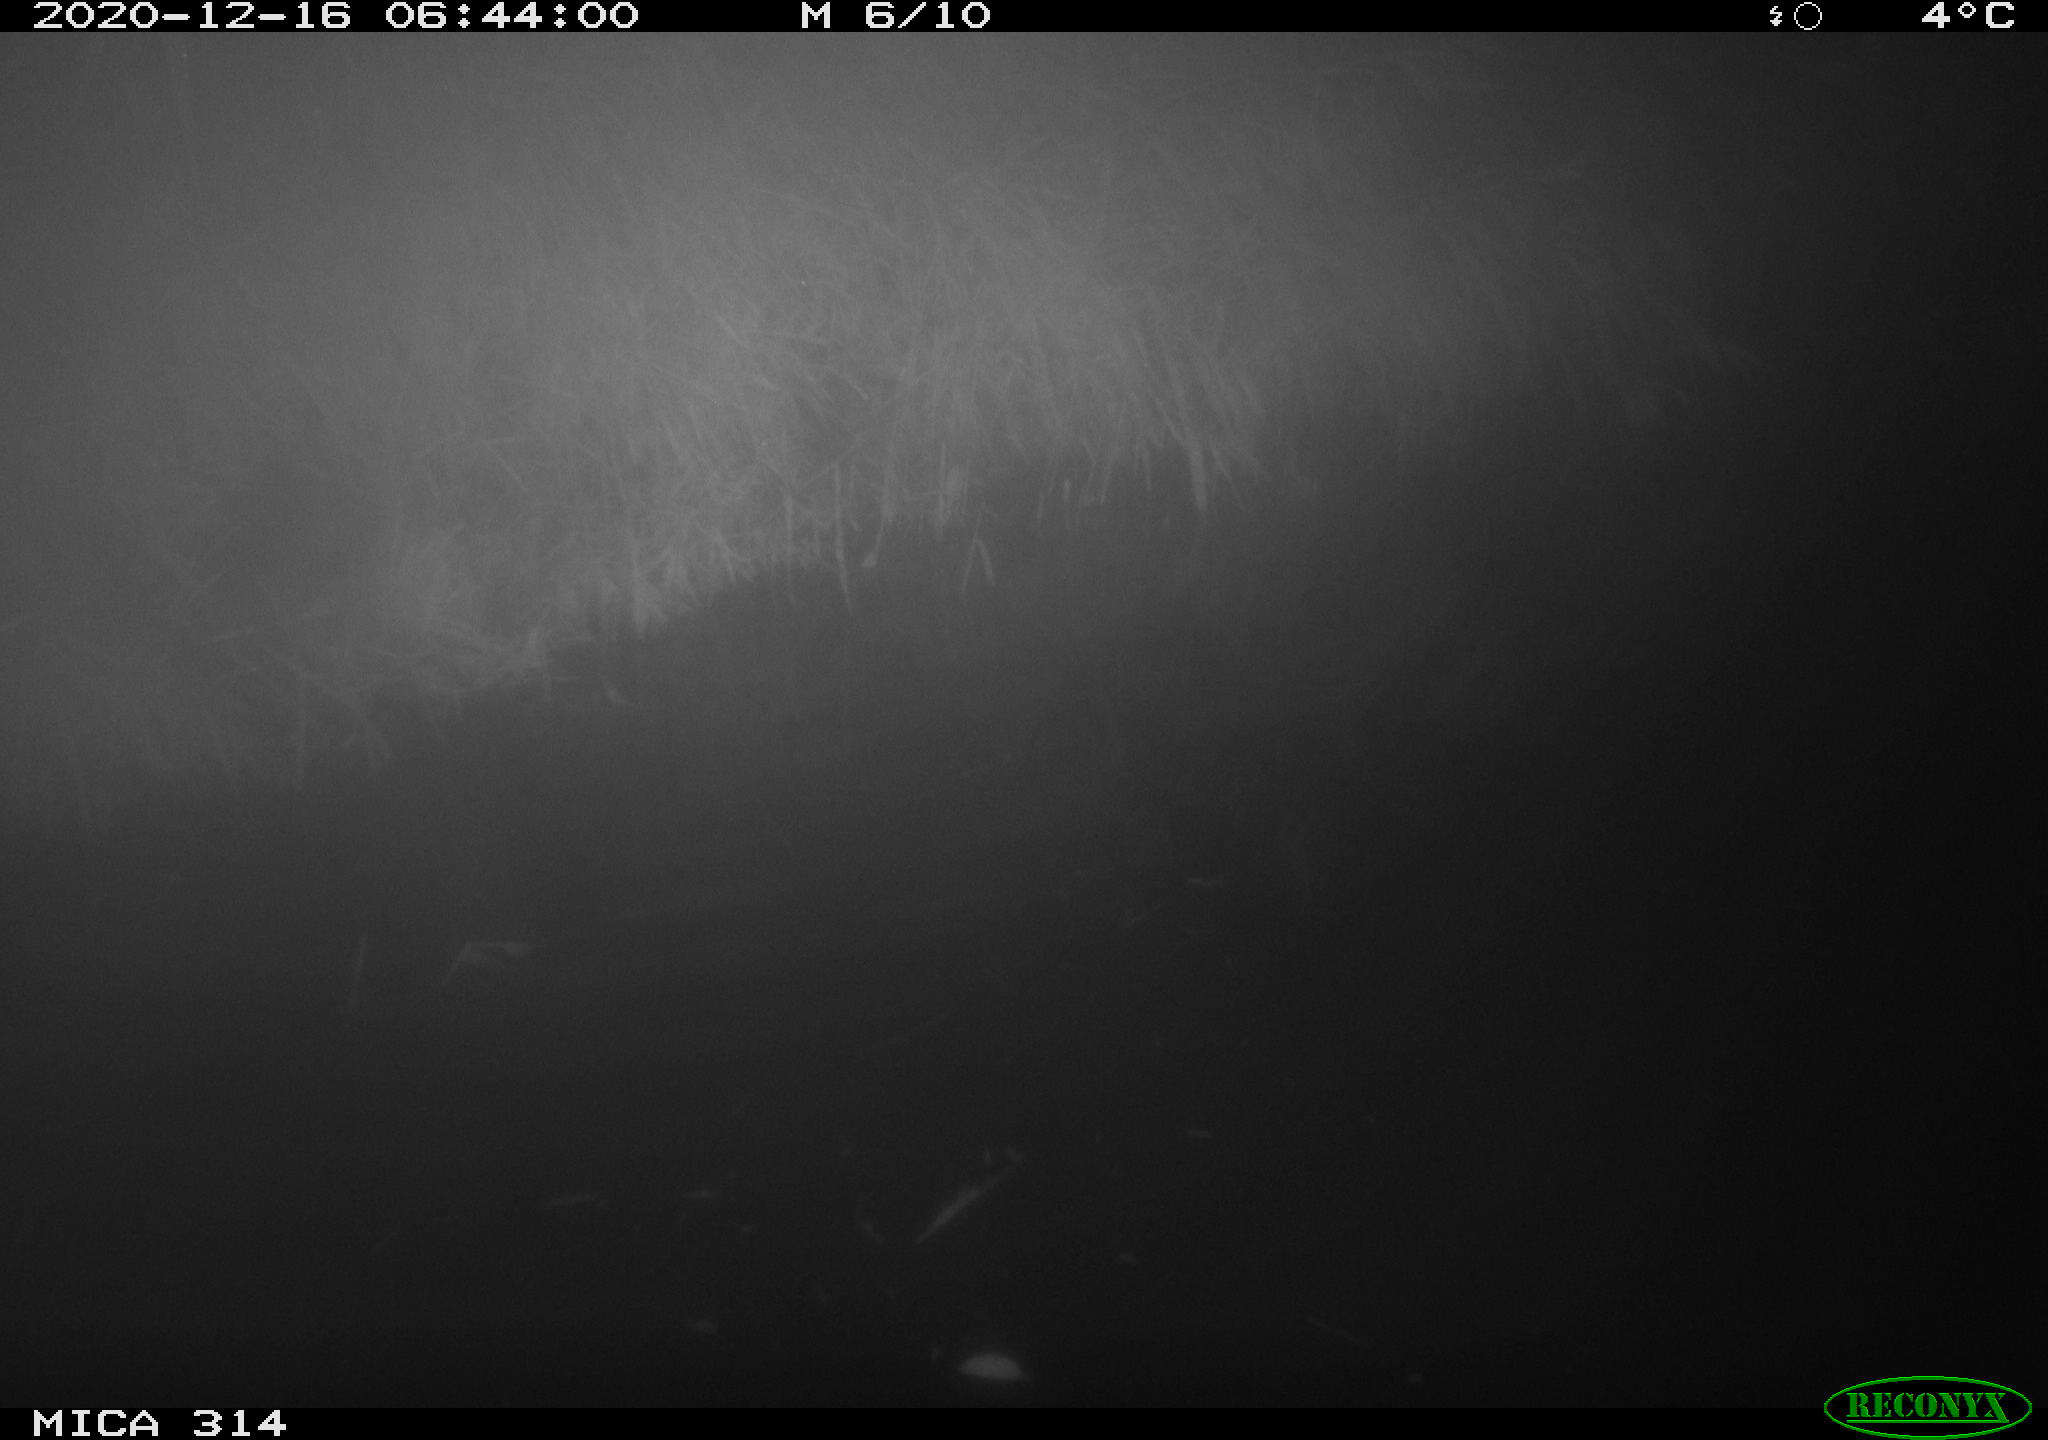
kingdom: Animalia
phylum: Chordata
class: Mammalia
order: Rodentia
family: Muridae
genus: Rattus
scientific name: Rattus norvegicus
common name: Brown rat
